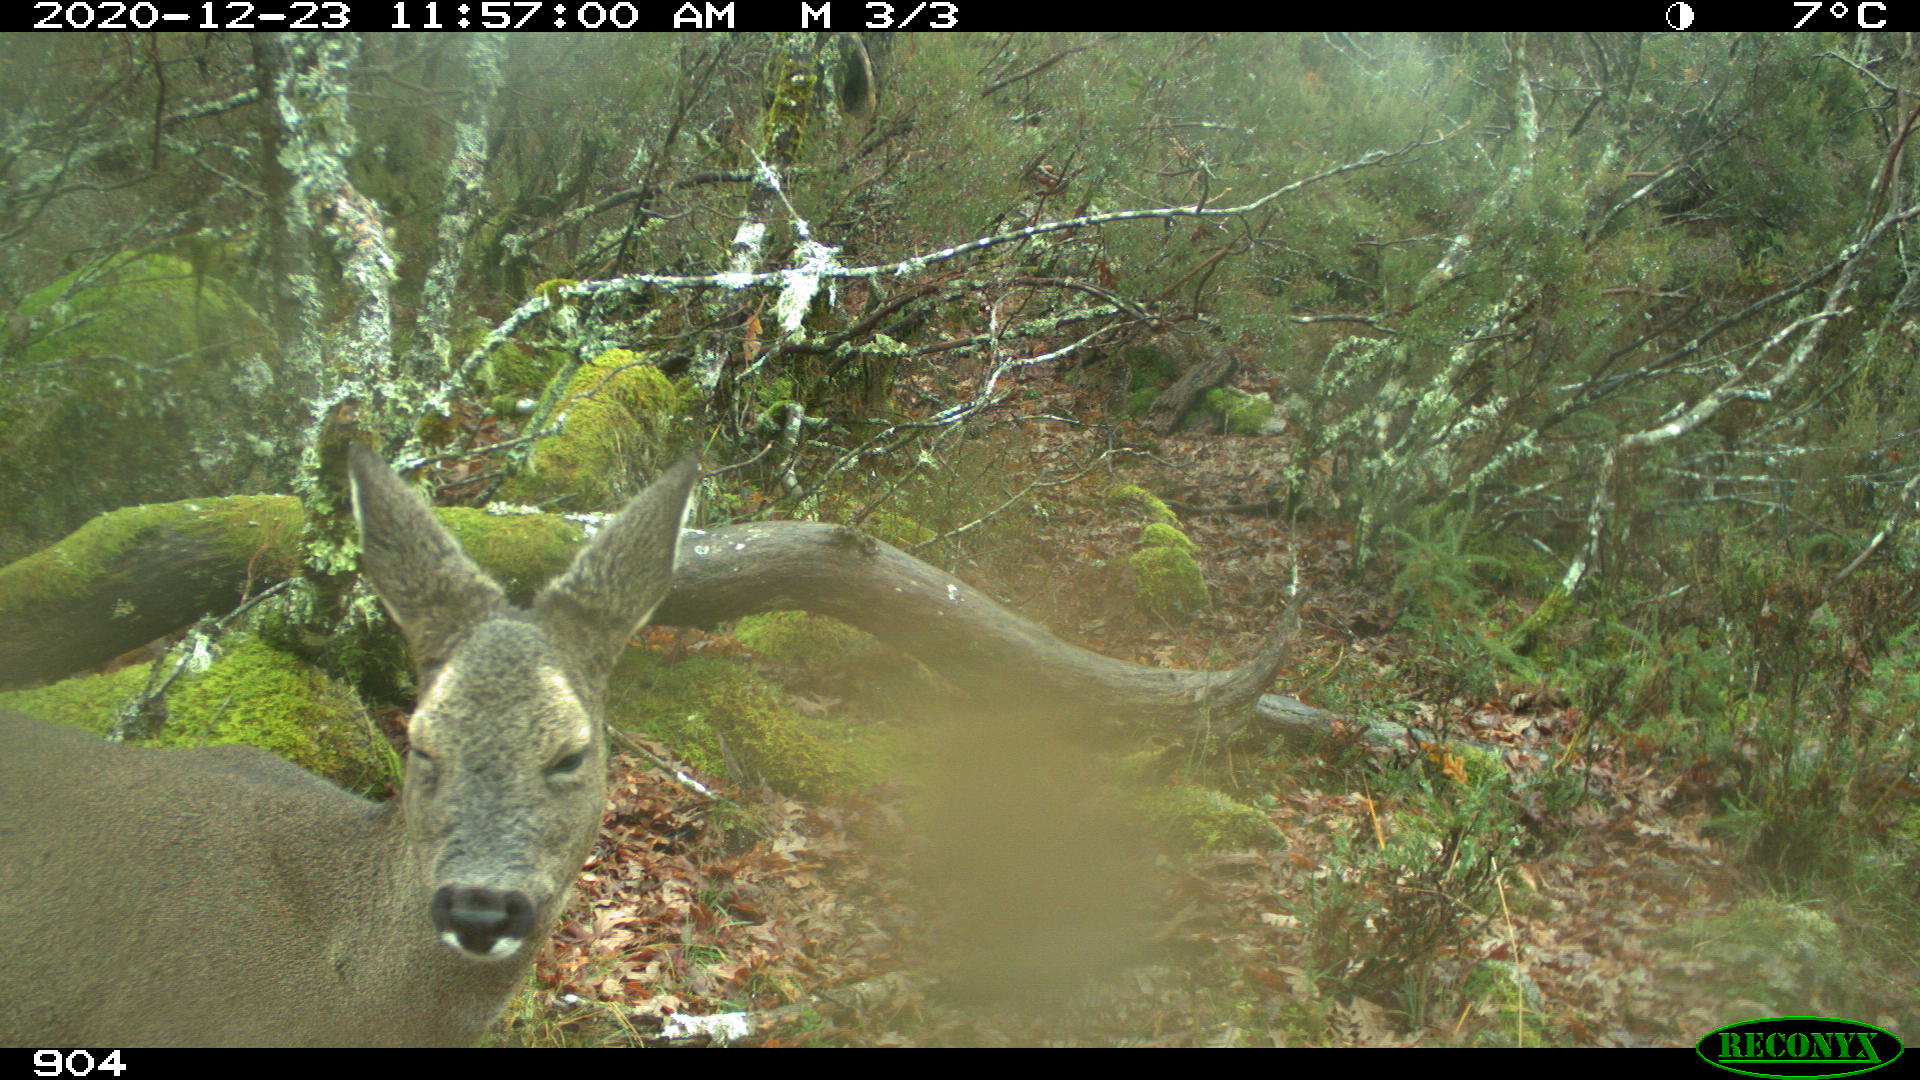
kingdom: Animalia
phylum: Chordata
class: Mammalia
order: Artiodactyla
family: Cervidae
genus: Capreolus
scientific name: Capreolus capreolus
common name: Western roe deer
